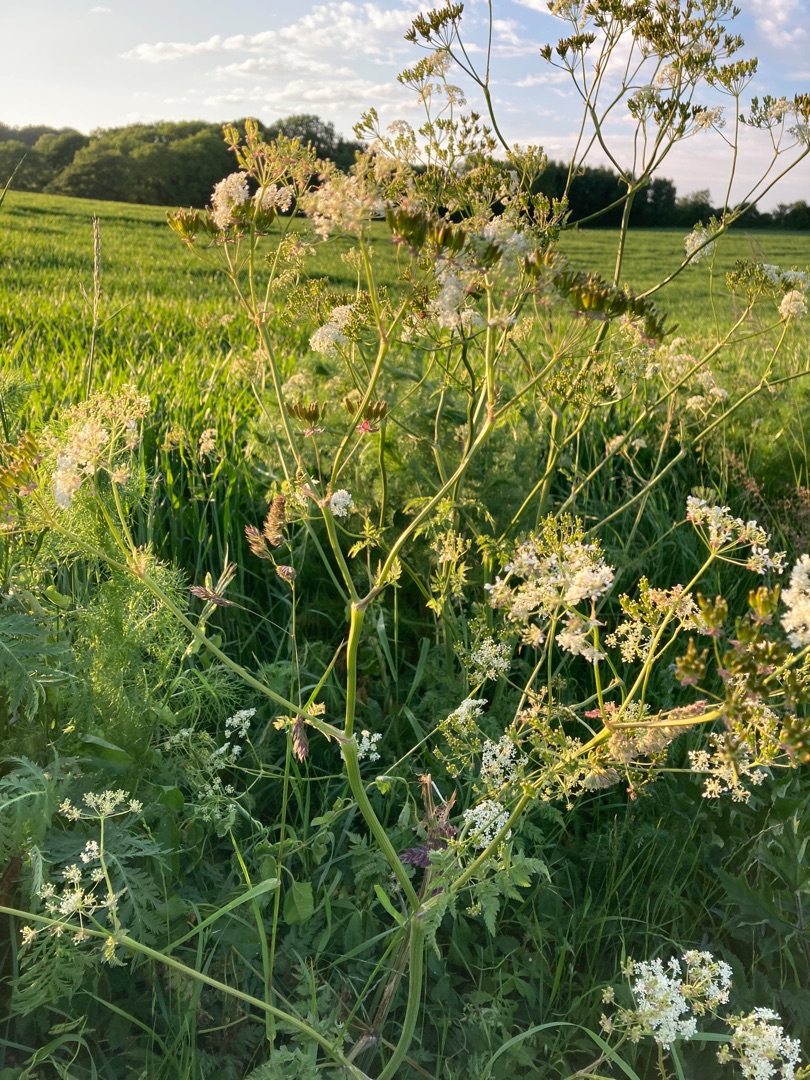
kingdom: Plantae
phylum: Tracheophyta
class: Magnoliopsida
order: Apiales
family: Apiaceae
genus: Anthriscus
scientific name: Anthriscus sylvestris
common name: Vild kørvel
